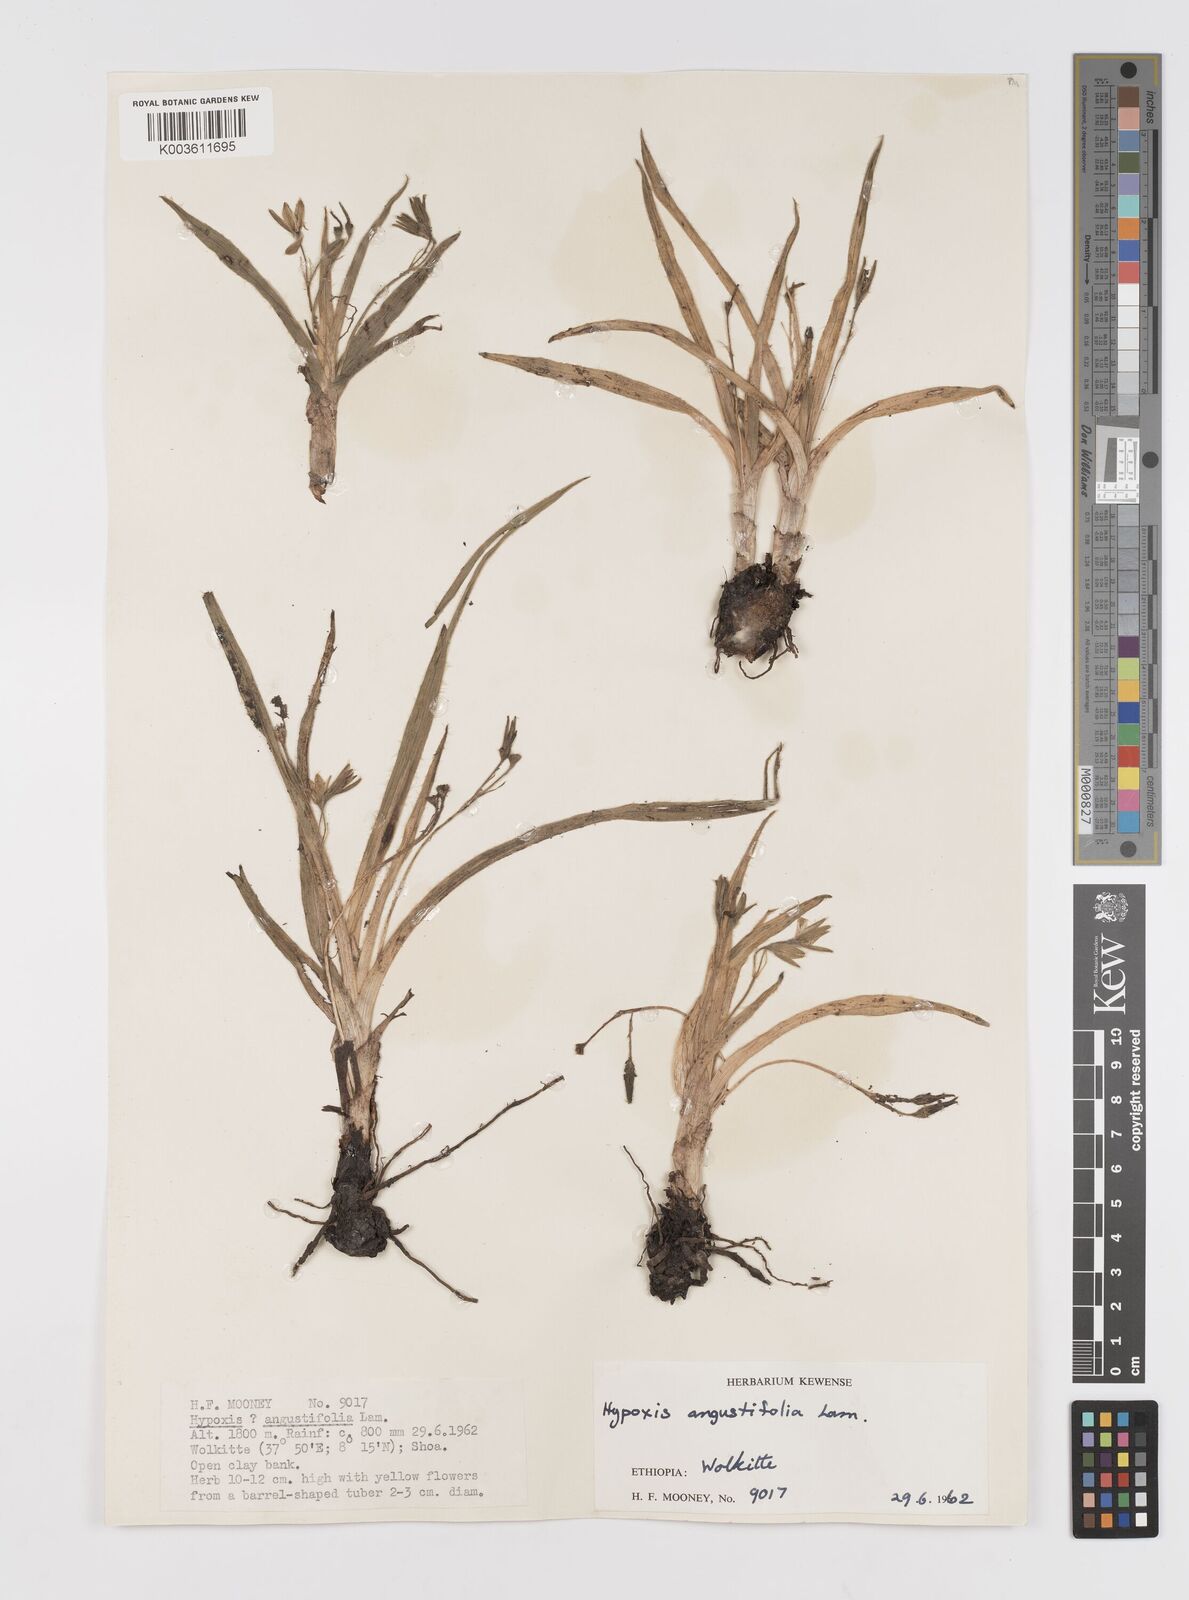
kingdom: Plantae
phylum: Tracheophyta
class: Liliopsida
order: Asparagales
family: Hypoxidaceae
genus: Hypoxis
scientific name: Hypoxis
